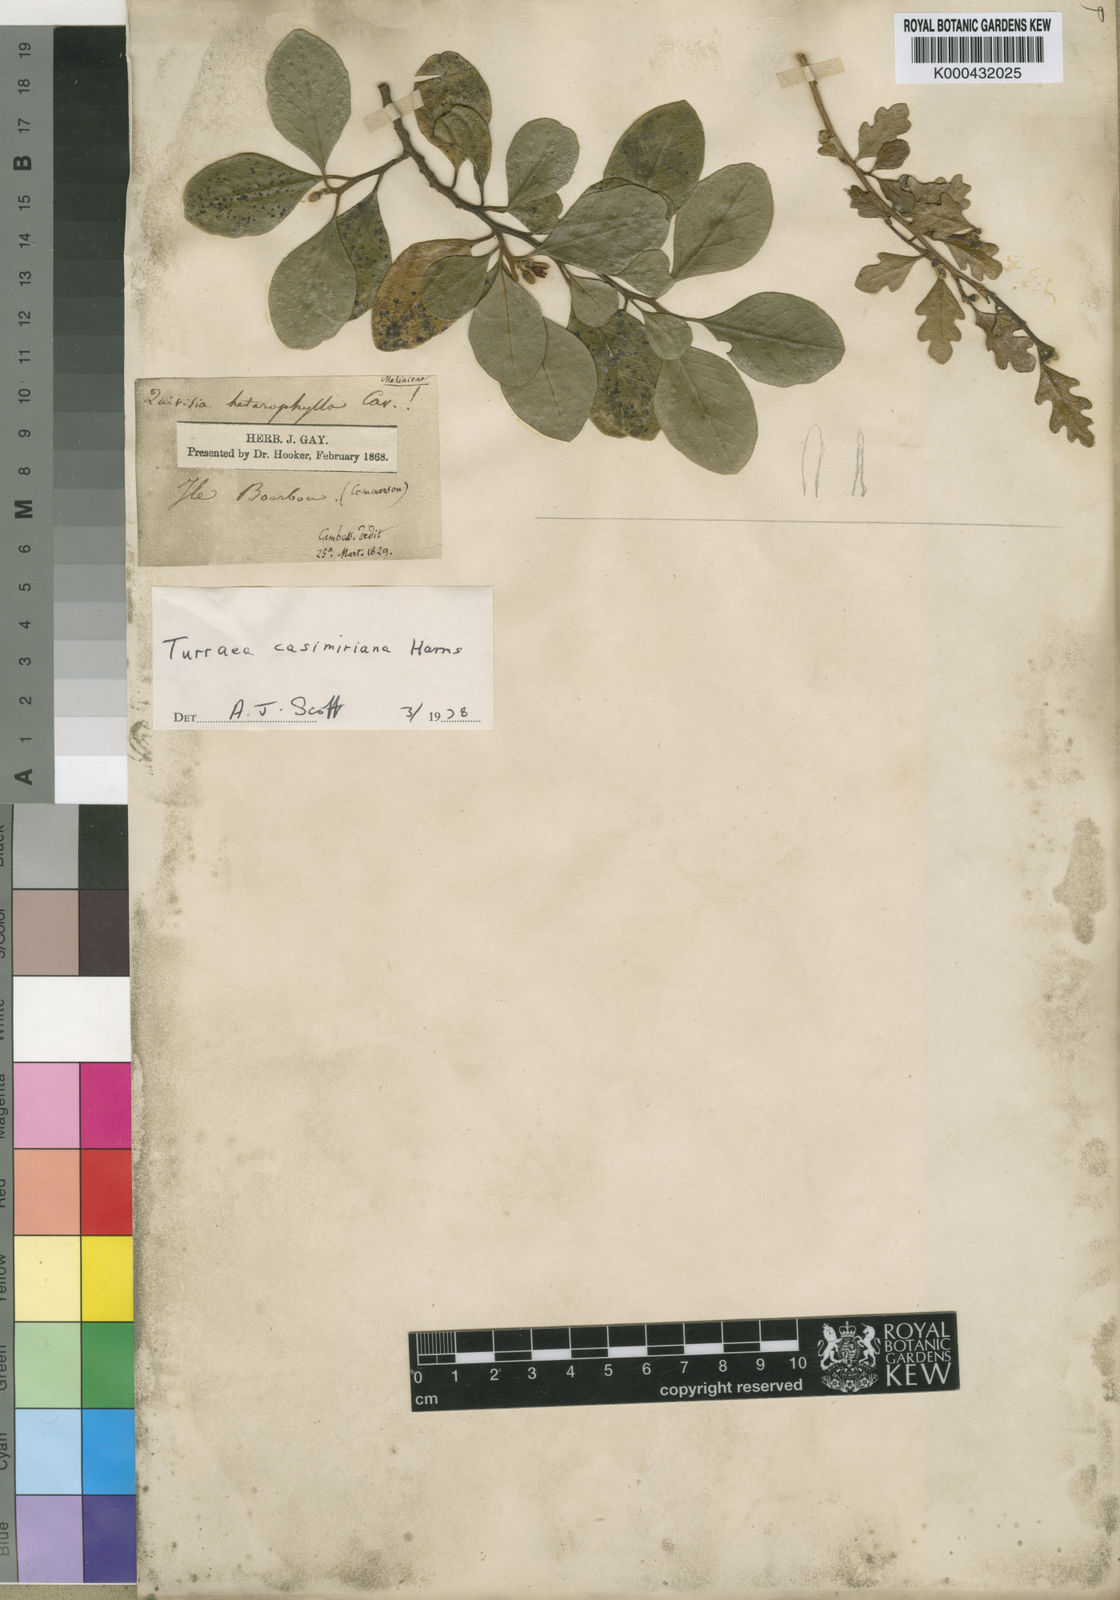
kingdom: Plantae
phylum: Tracheophyta
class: Magnoliopsida
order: Sapindales
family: Meliaceae
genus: Turraea
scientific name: Turraea thouarsiana
